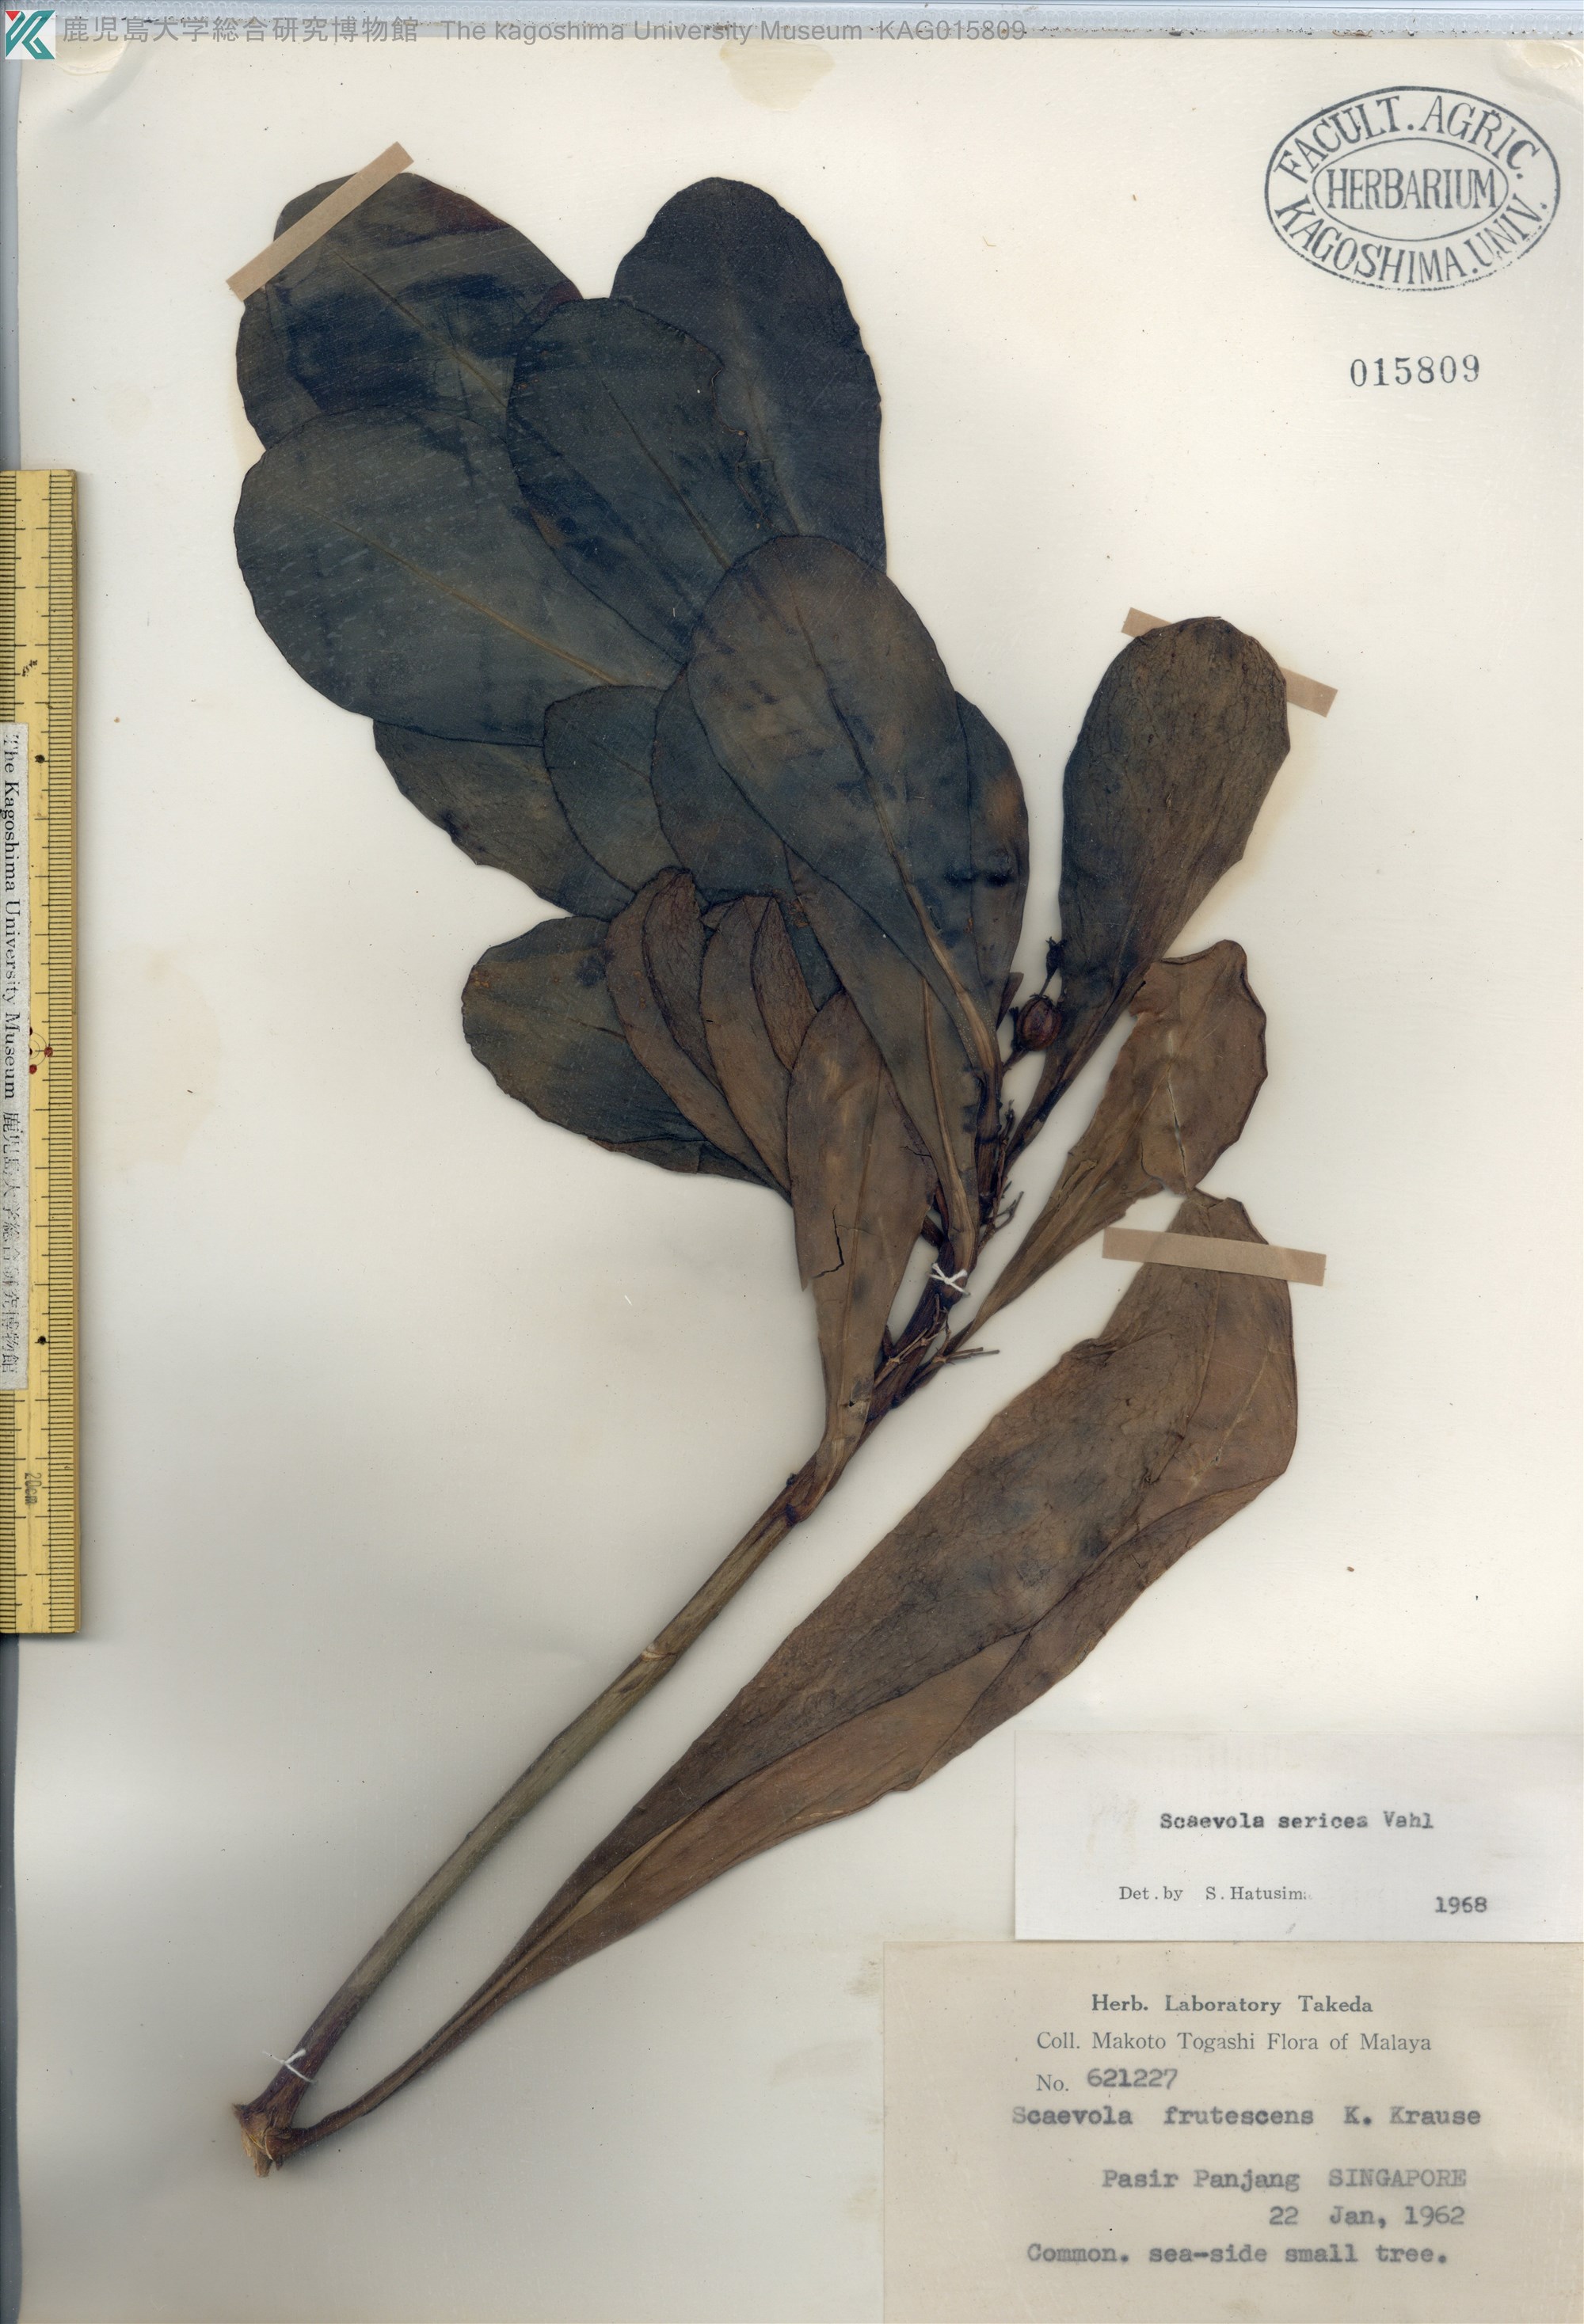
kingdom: Plantae
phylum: Tracheophyta
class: Magnoliopsida
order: Asterales
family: Goodeniaceae
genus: Scaevola
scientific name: Scaevola taccada
